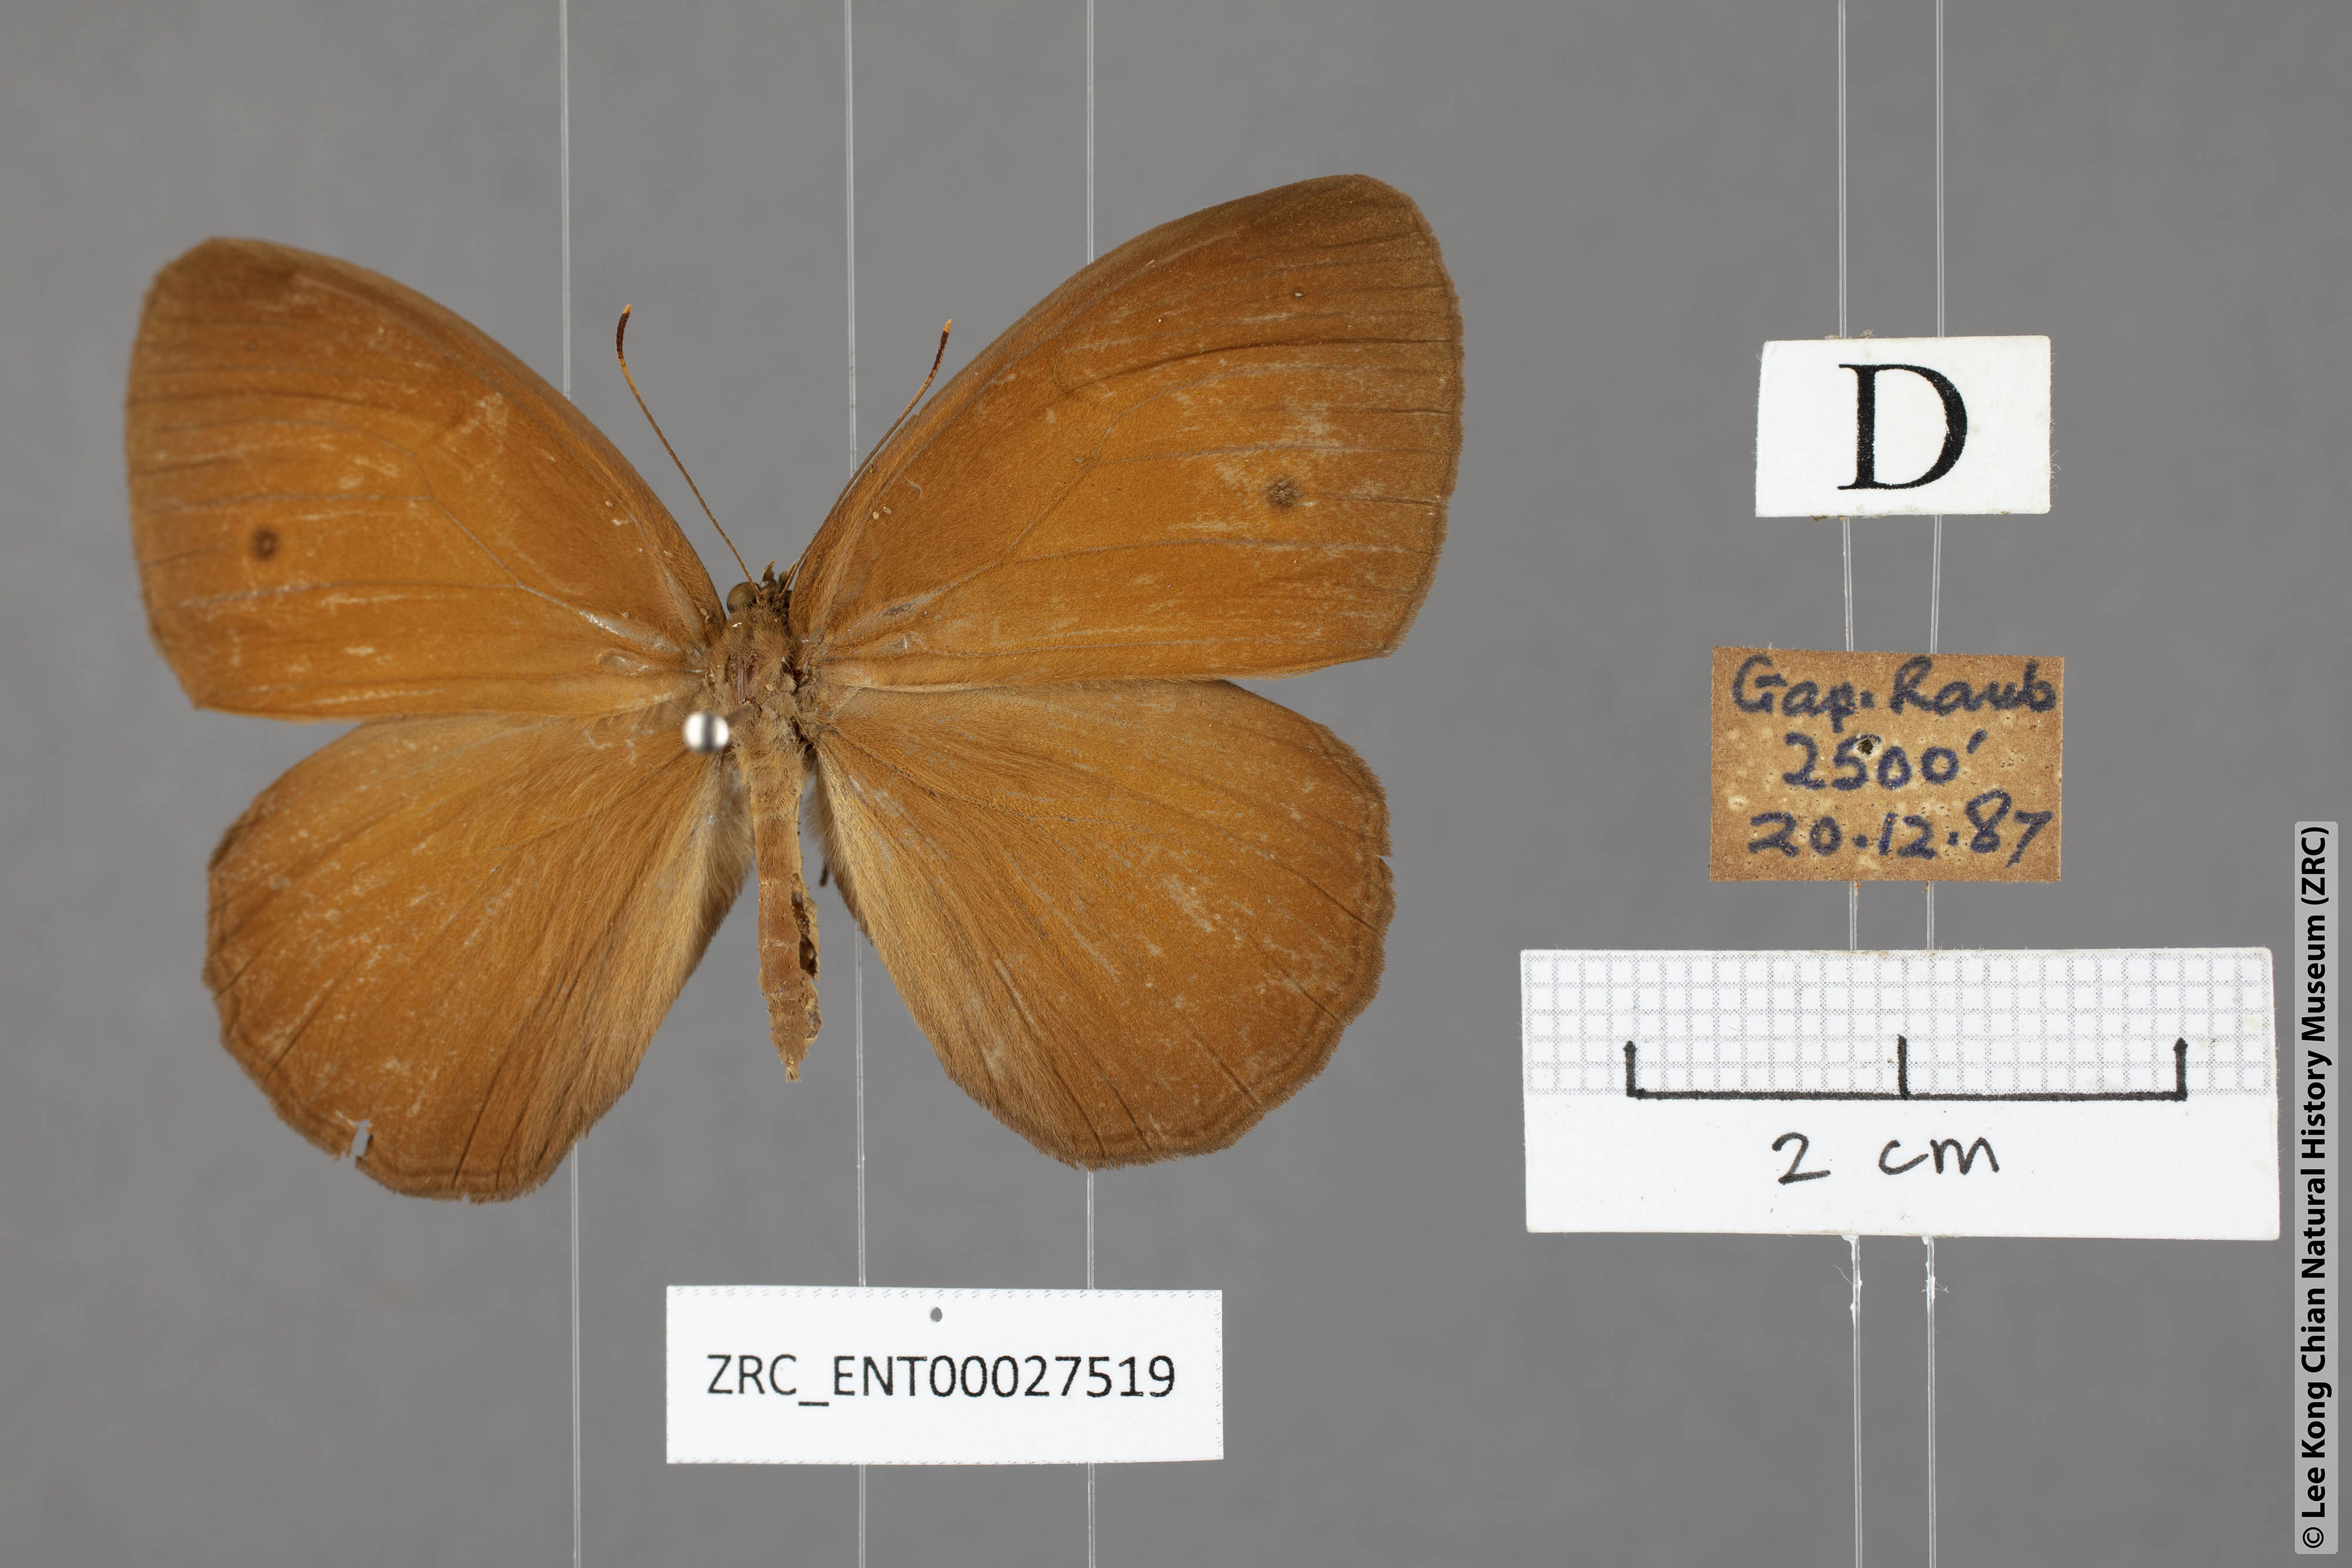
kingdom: Animalia
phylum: Arthropoda
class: Insecta
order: Lepidoptera
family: Nymphalidae
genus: Mycalesis
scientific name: Mycalesis oroatis
